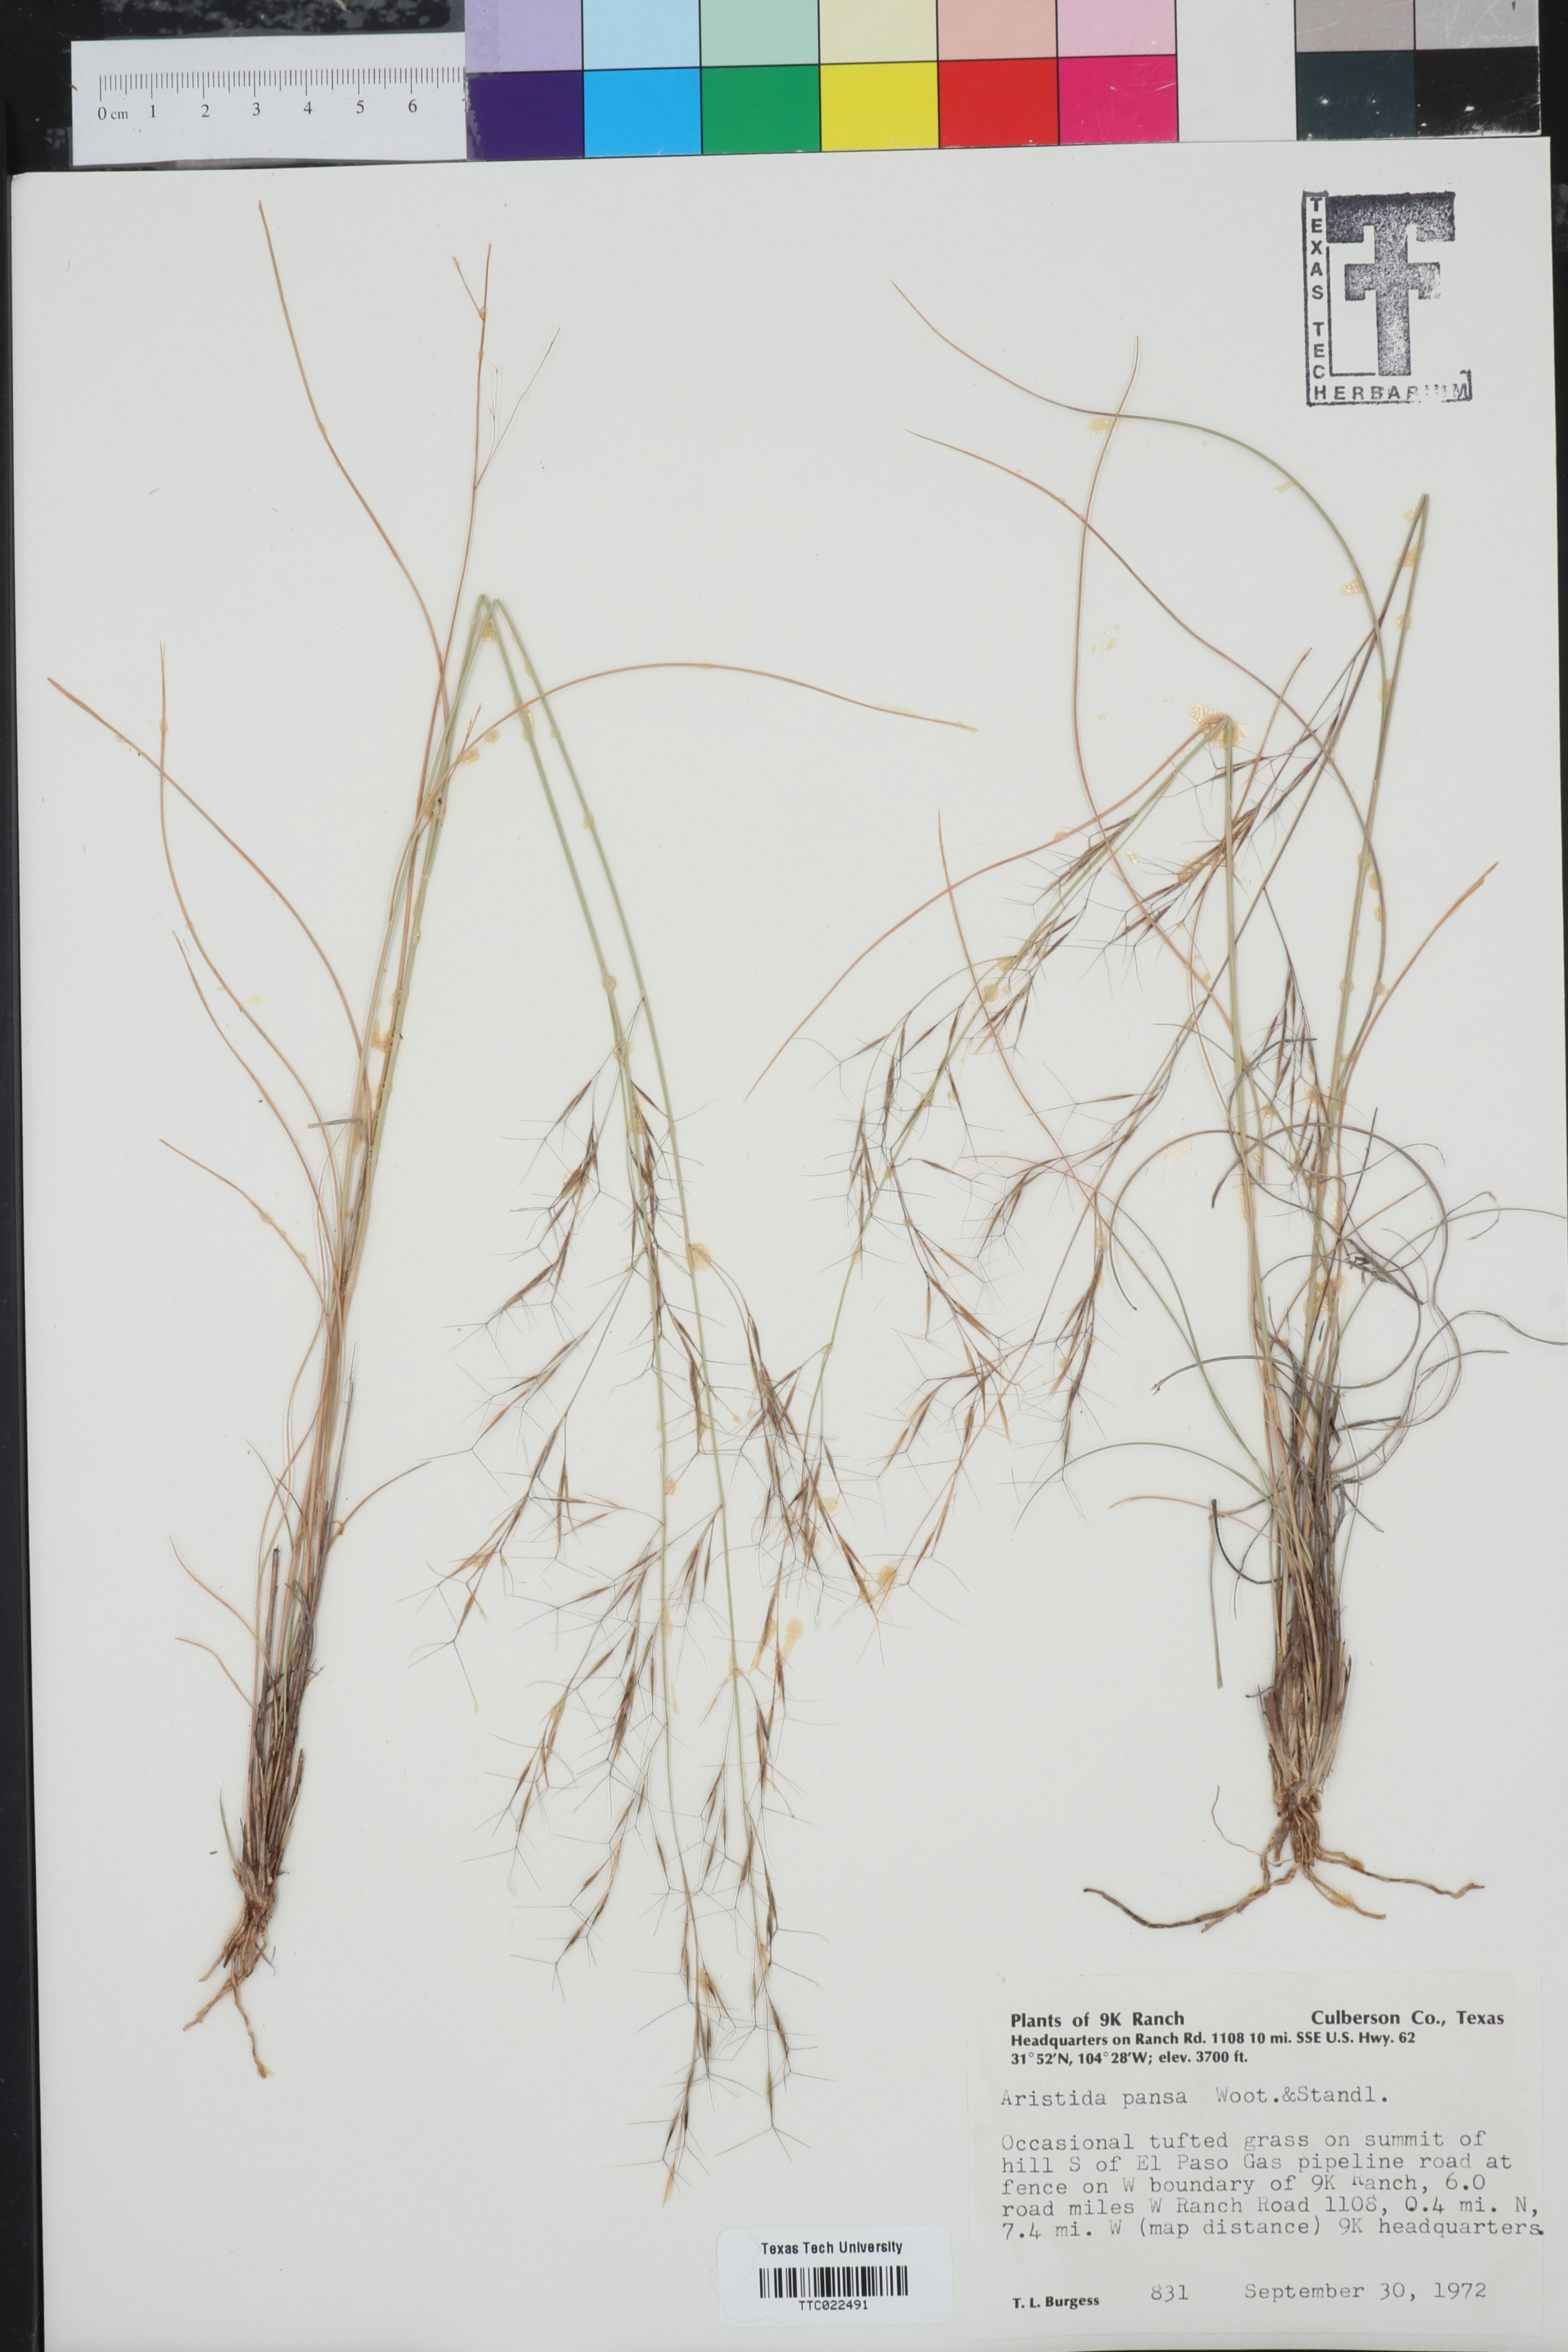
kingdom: Plantae
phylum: Tracheophyta
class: Liliopsida
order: Poales
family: Poaceae
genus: Aristida
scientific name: Aristida pansa
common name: Wooton's three-awn
